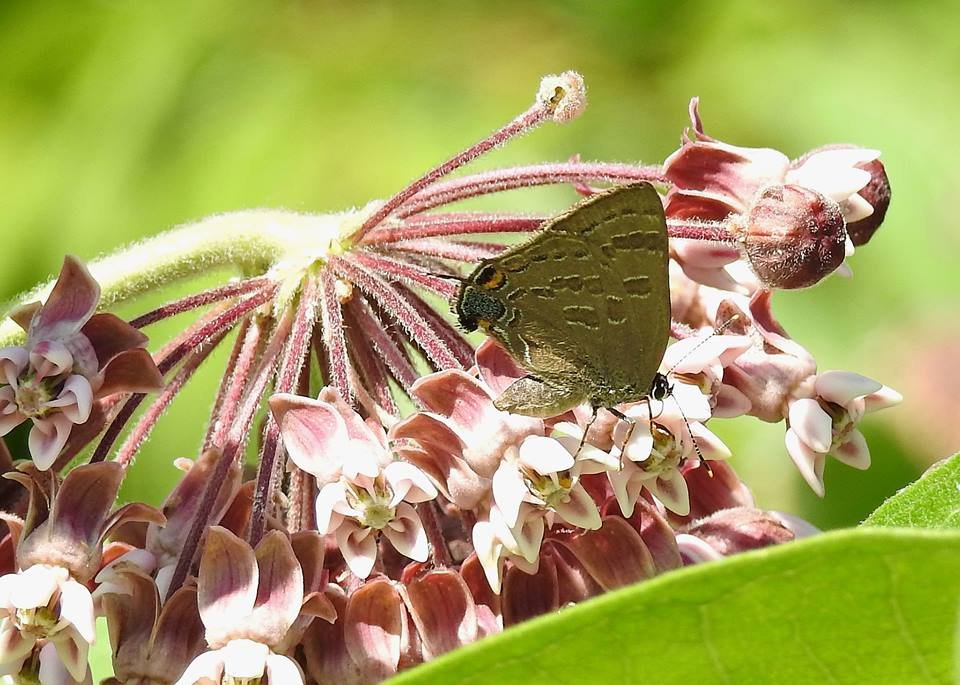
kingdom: Animalia
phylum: Arthropoda
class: Insecta
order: Lepidoptera
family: Lycaenidae
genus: Strymon
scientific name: Strymon caryaevorus
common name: Hickory Hairstreak
